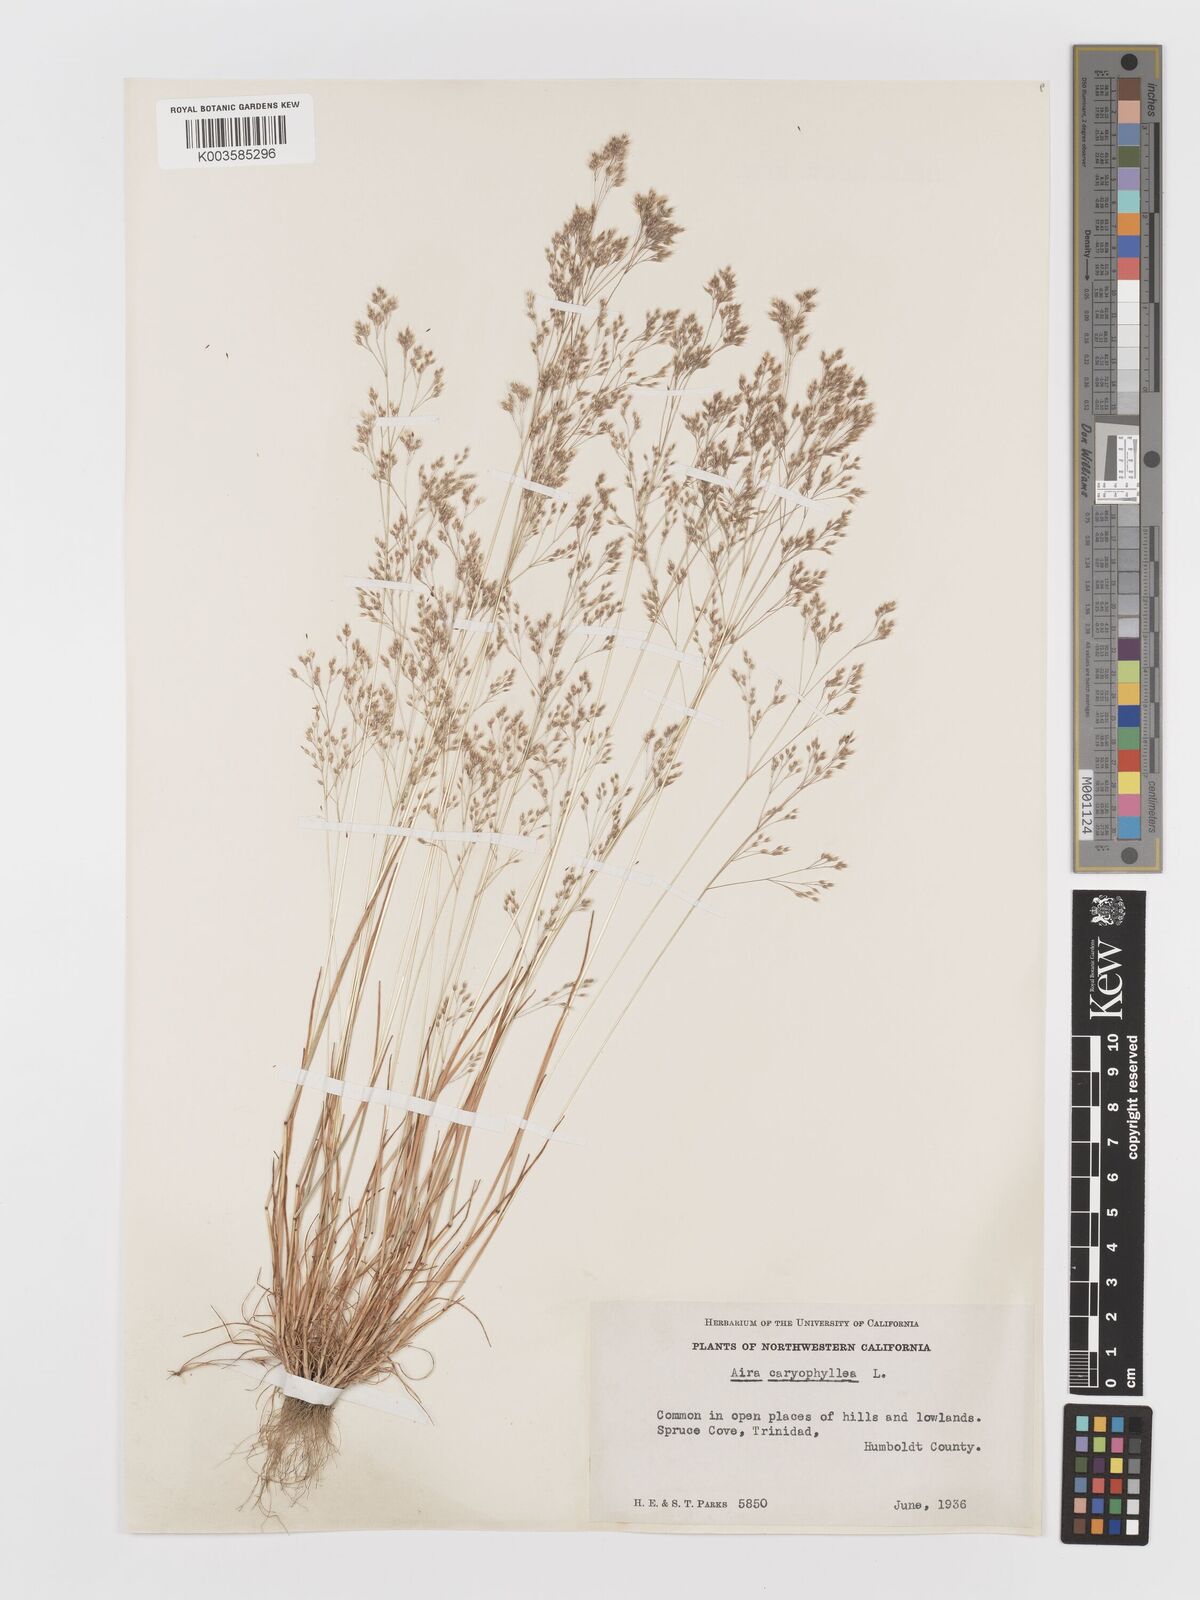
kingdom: Plantae
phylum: Tracheophyta
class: Liliopsida
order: Poales
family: Poaceae
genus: Aira
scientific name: Aira caryophyllea
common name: Silver hairgrass
